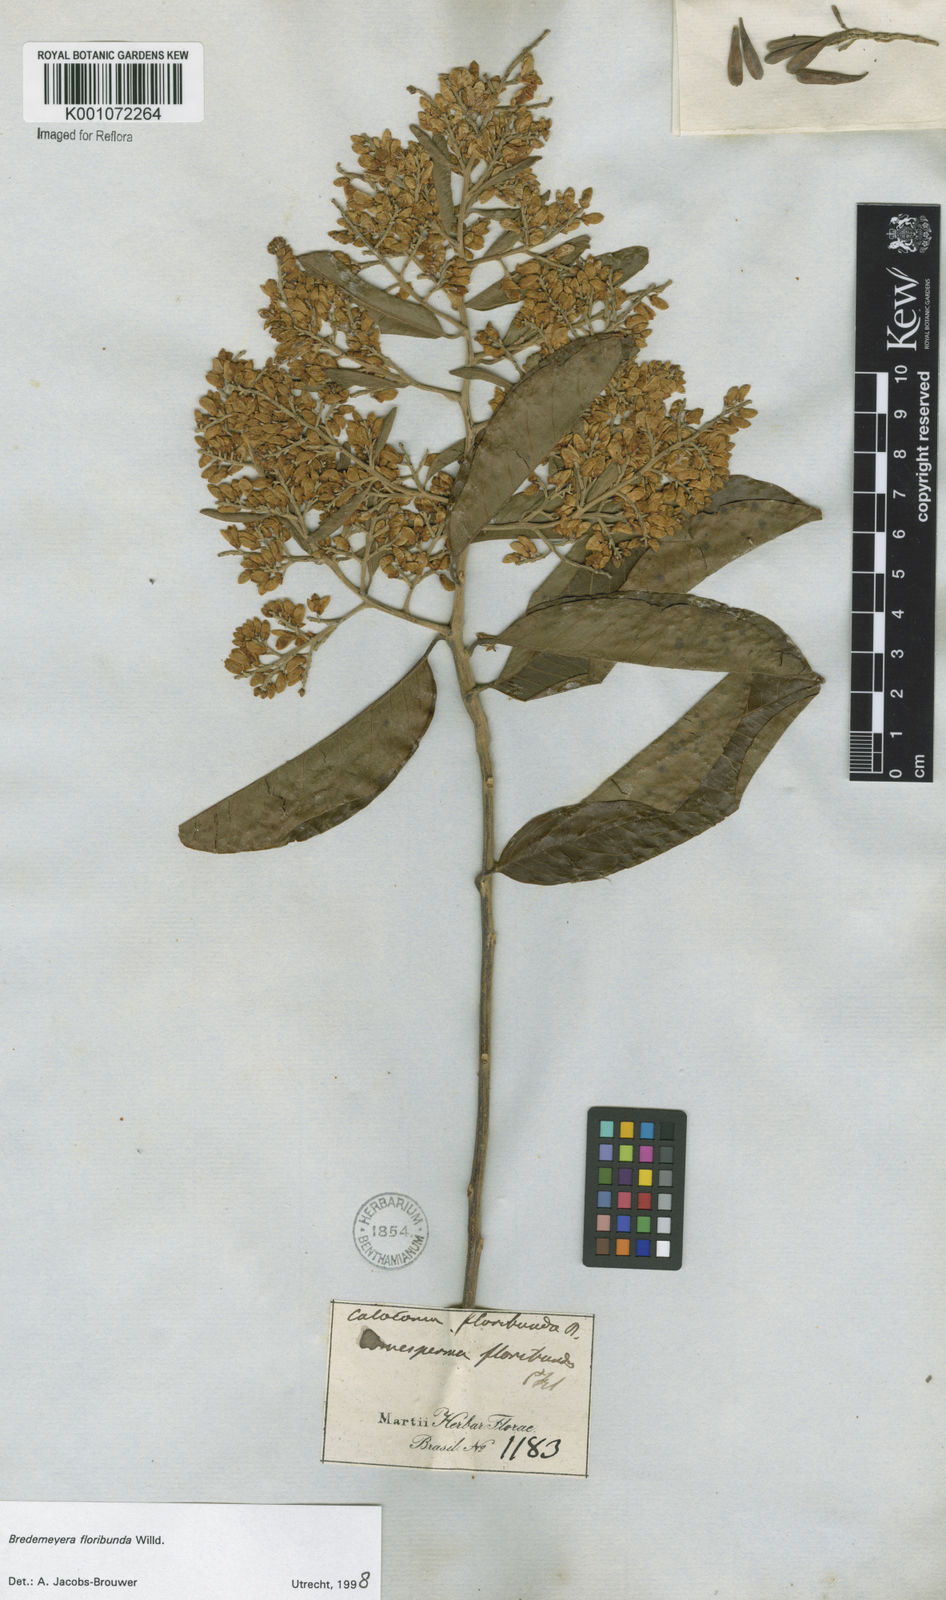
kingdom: Plantae
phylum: Tracheophyta
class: Magnoliopsida
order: Fabales
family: Polygalaceae
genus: Bredemeyera
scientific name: Bredemeyera floribunda
